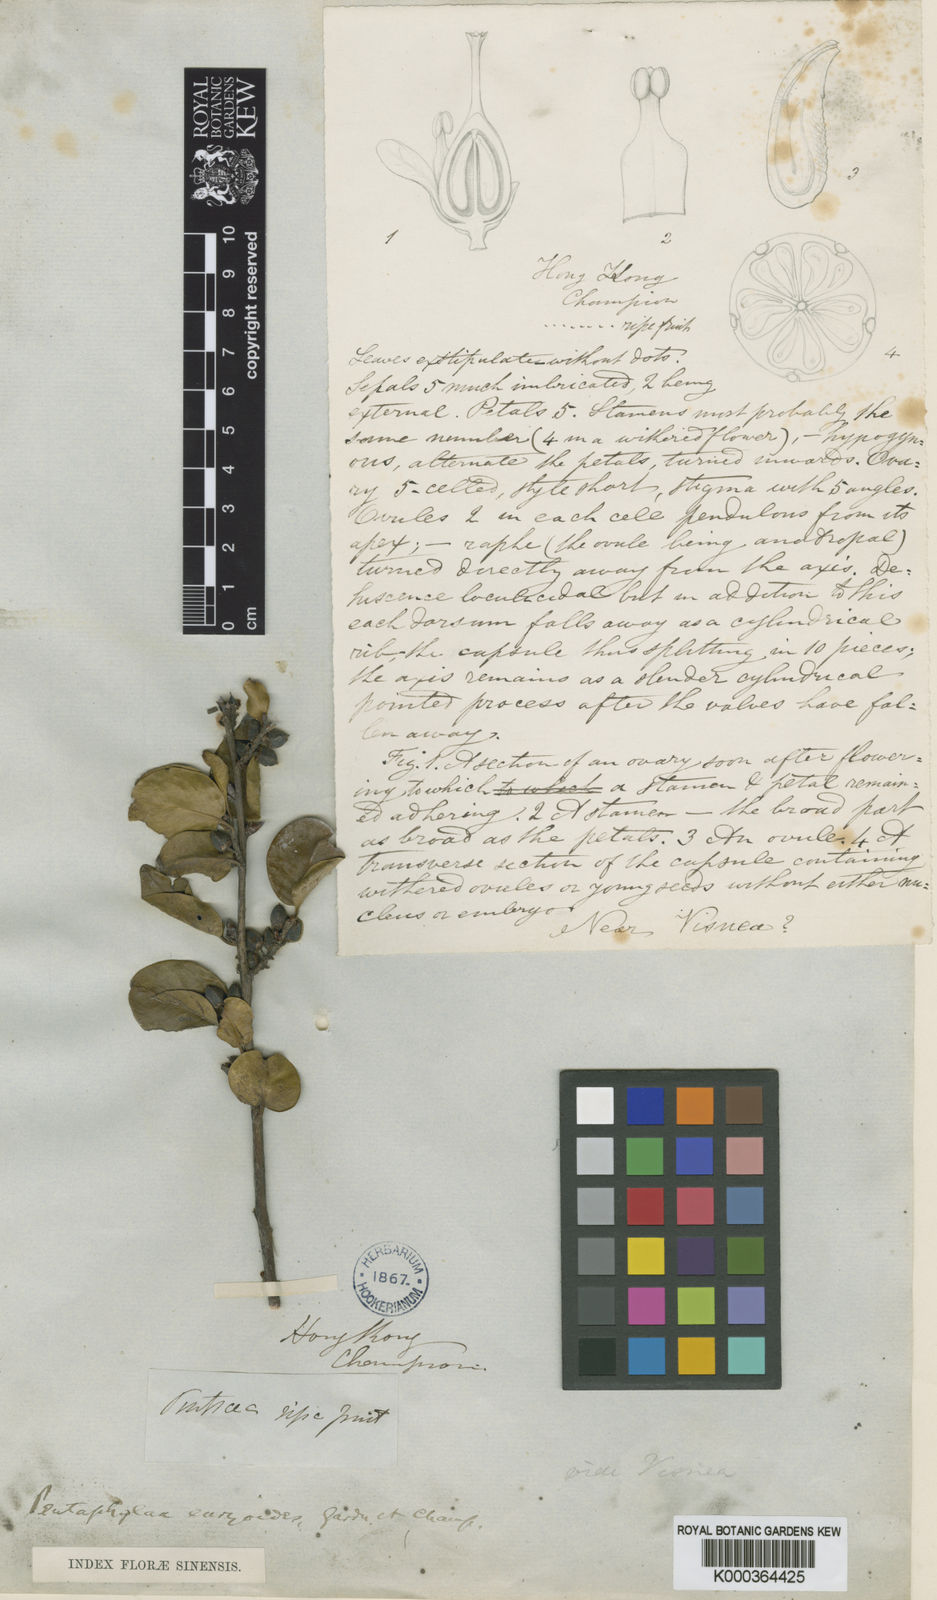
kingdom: Plantae
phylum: Tracheophyta
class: Magnoliopsida
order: Ericales
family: Pentaphylacaceae
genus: Pentaphylax
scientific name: Pentaphylax euryoides
